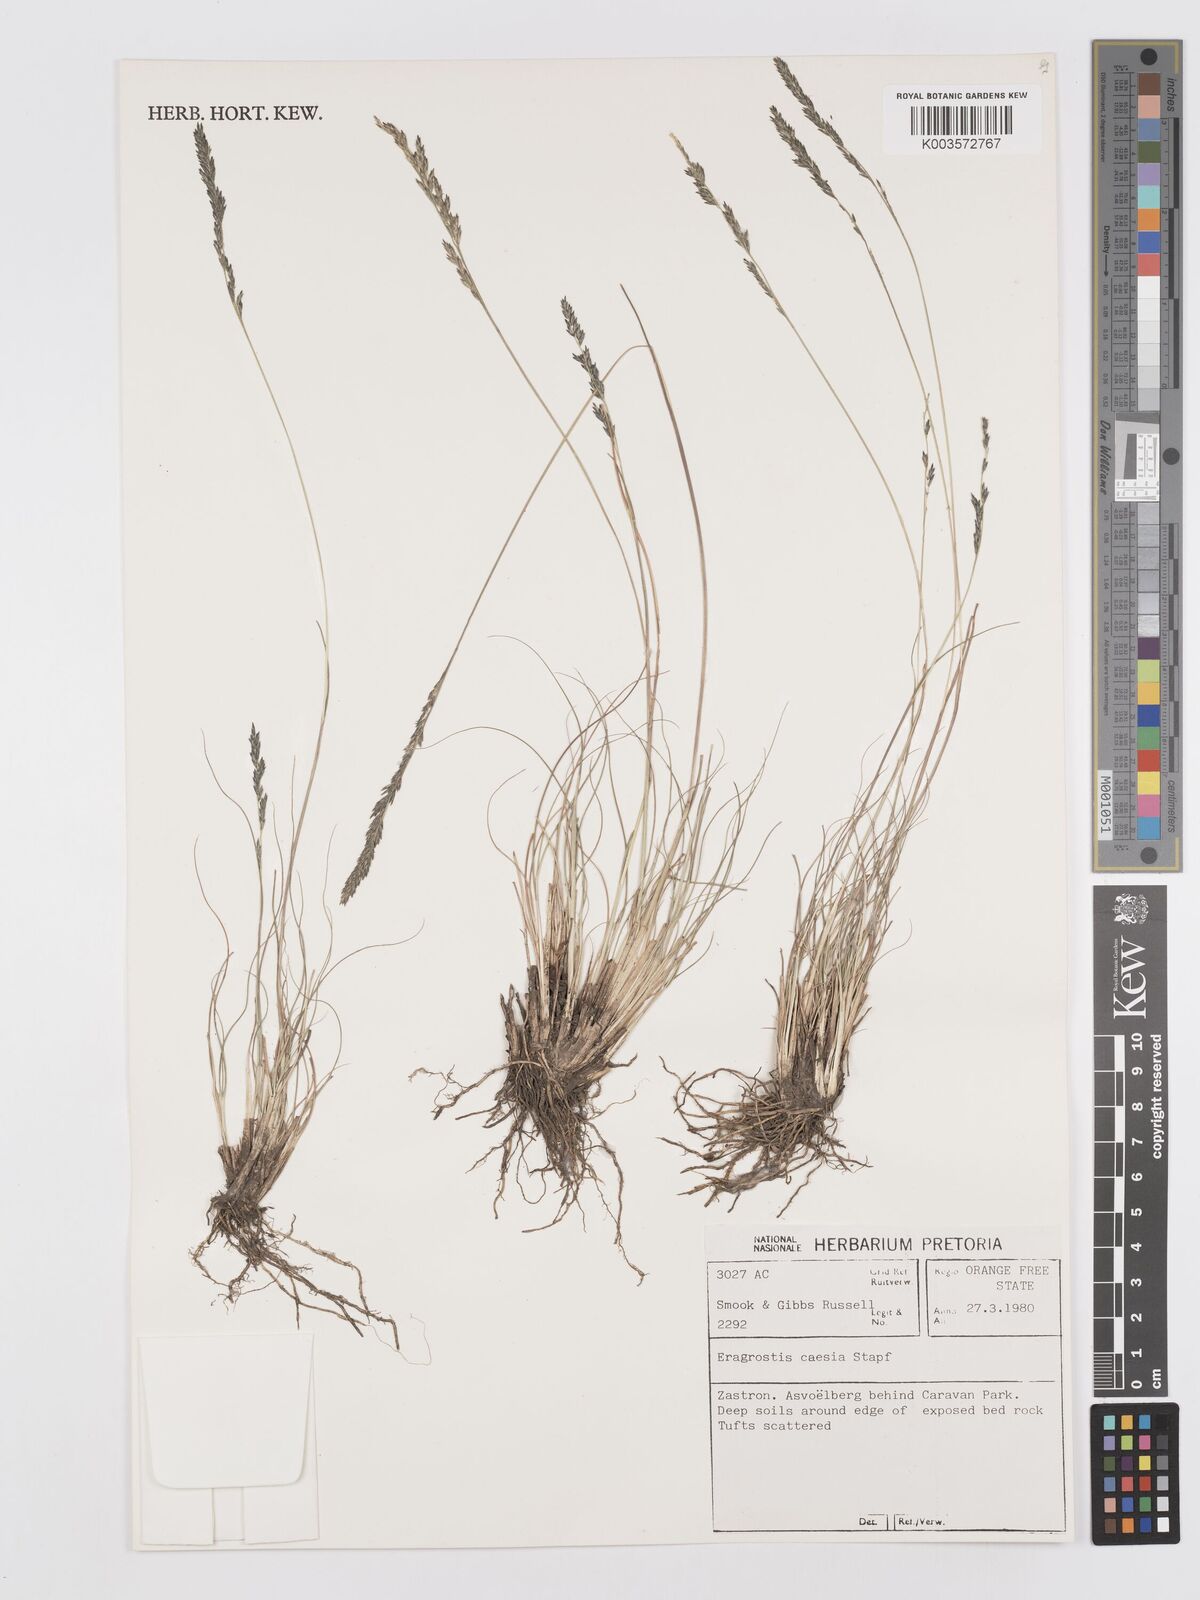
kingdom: Plantae
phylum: Tracheophyta
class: Liliopsida
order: Poales
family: Poaceae
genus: Eragrostis
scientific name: Eragrostis caesia
